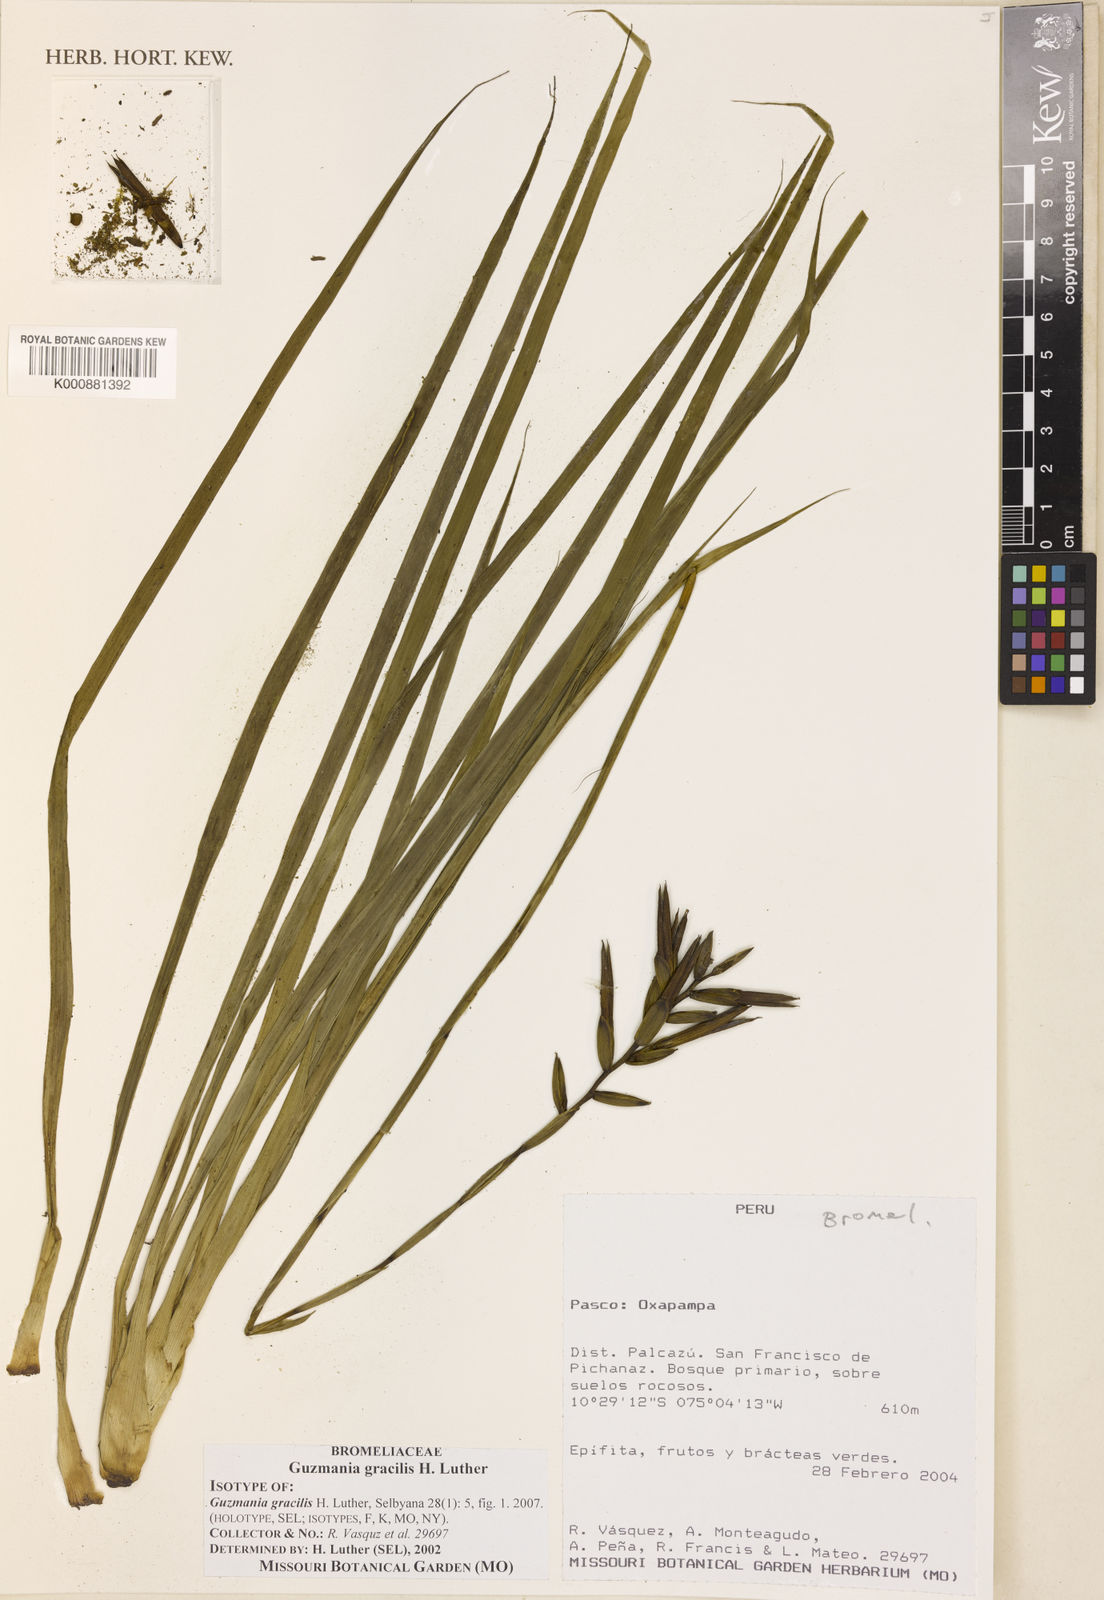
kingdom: Plantae
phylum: Tracheophyta
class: Liliopsida
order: Poales
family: Bromeliaceae
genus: Guzmania
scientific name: Guzmania gracilis
